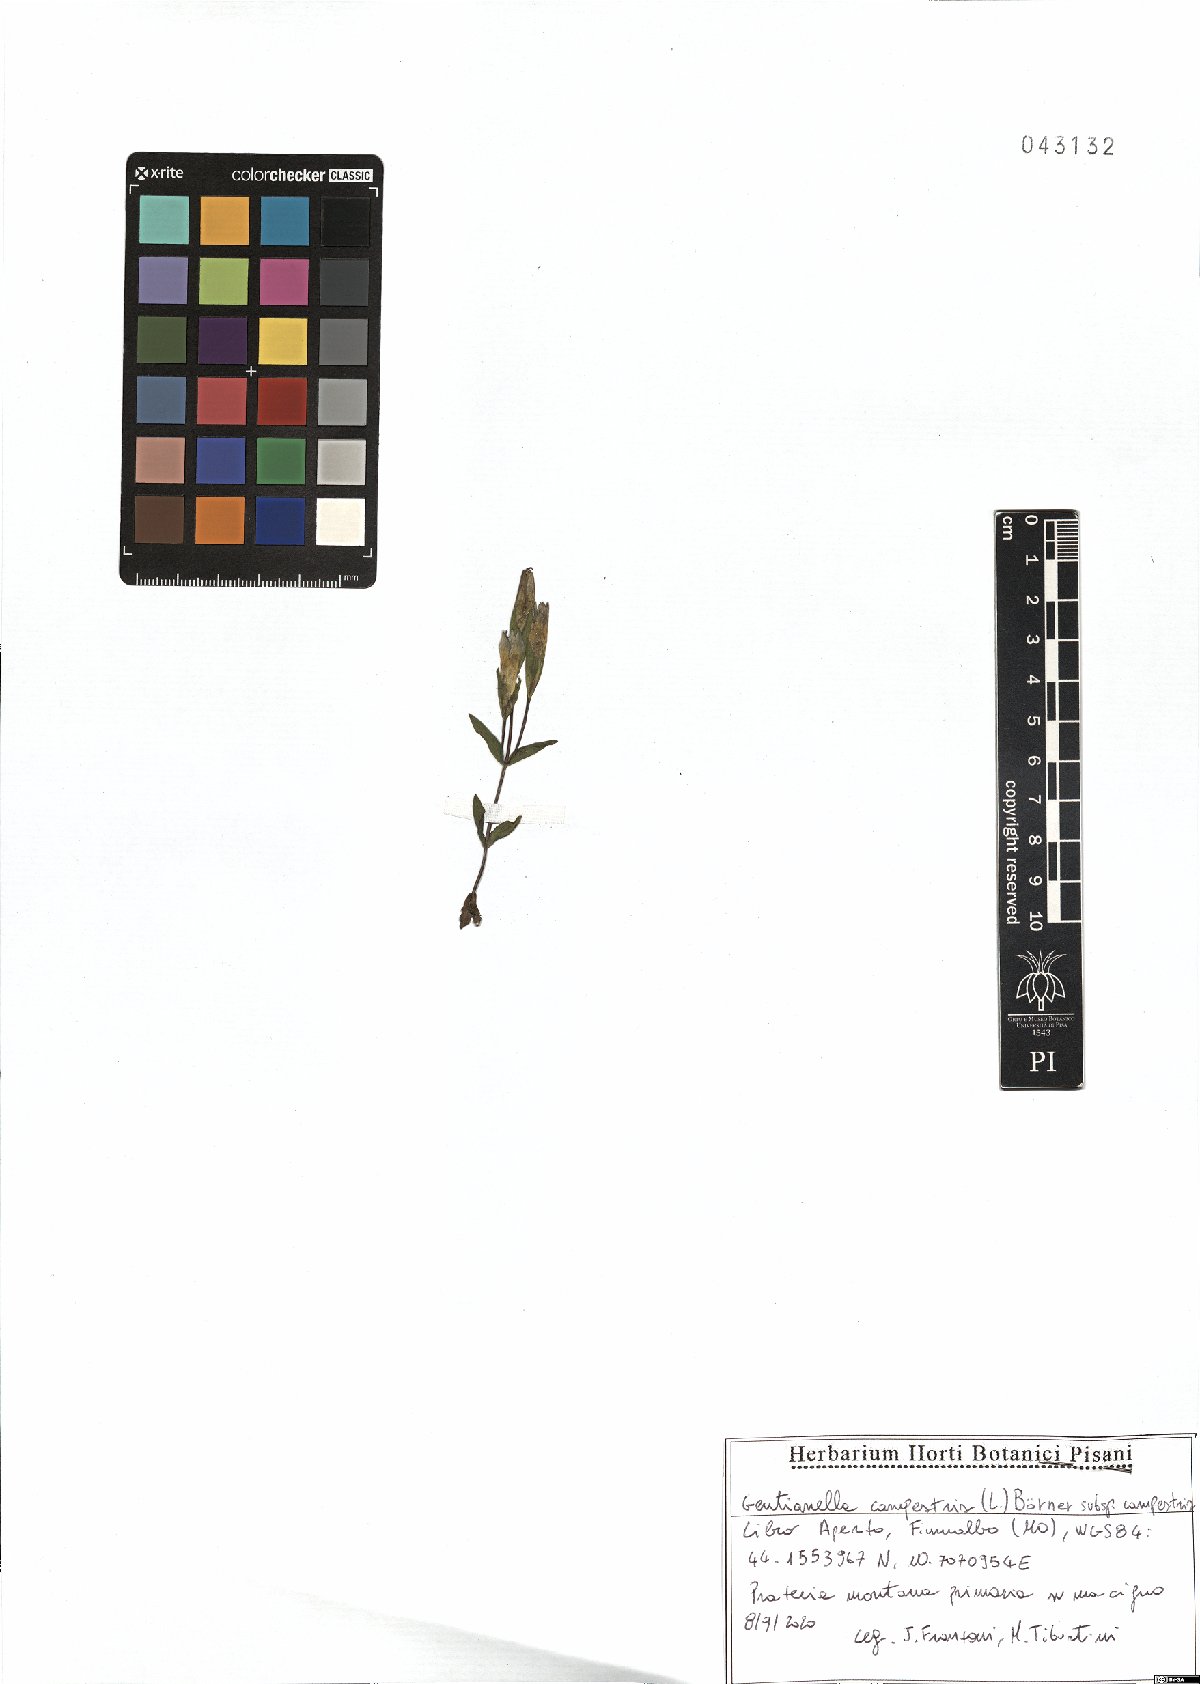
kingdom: Plantae
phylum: Tracheophyta
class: Magnoliopsida
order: Gentianales
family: Gentianaceae
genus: Gentianella
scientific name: Gentianella campestris
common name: Field gentian
